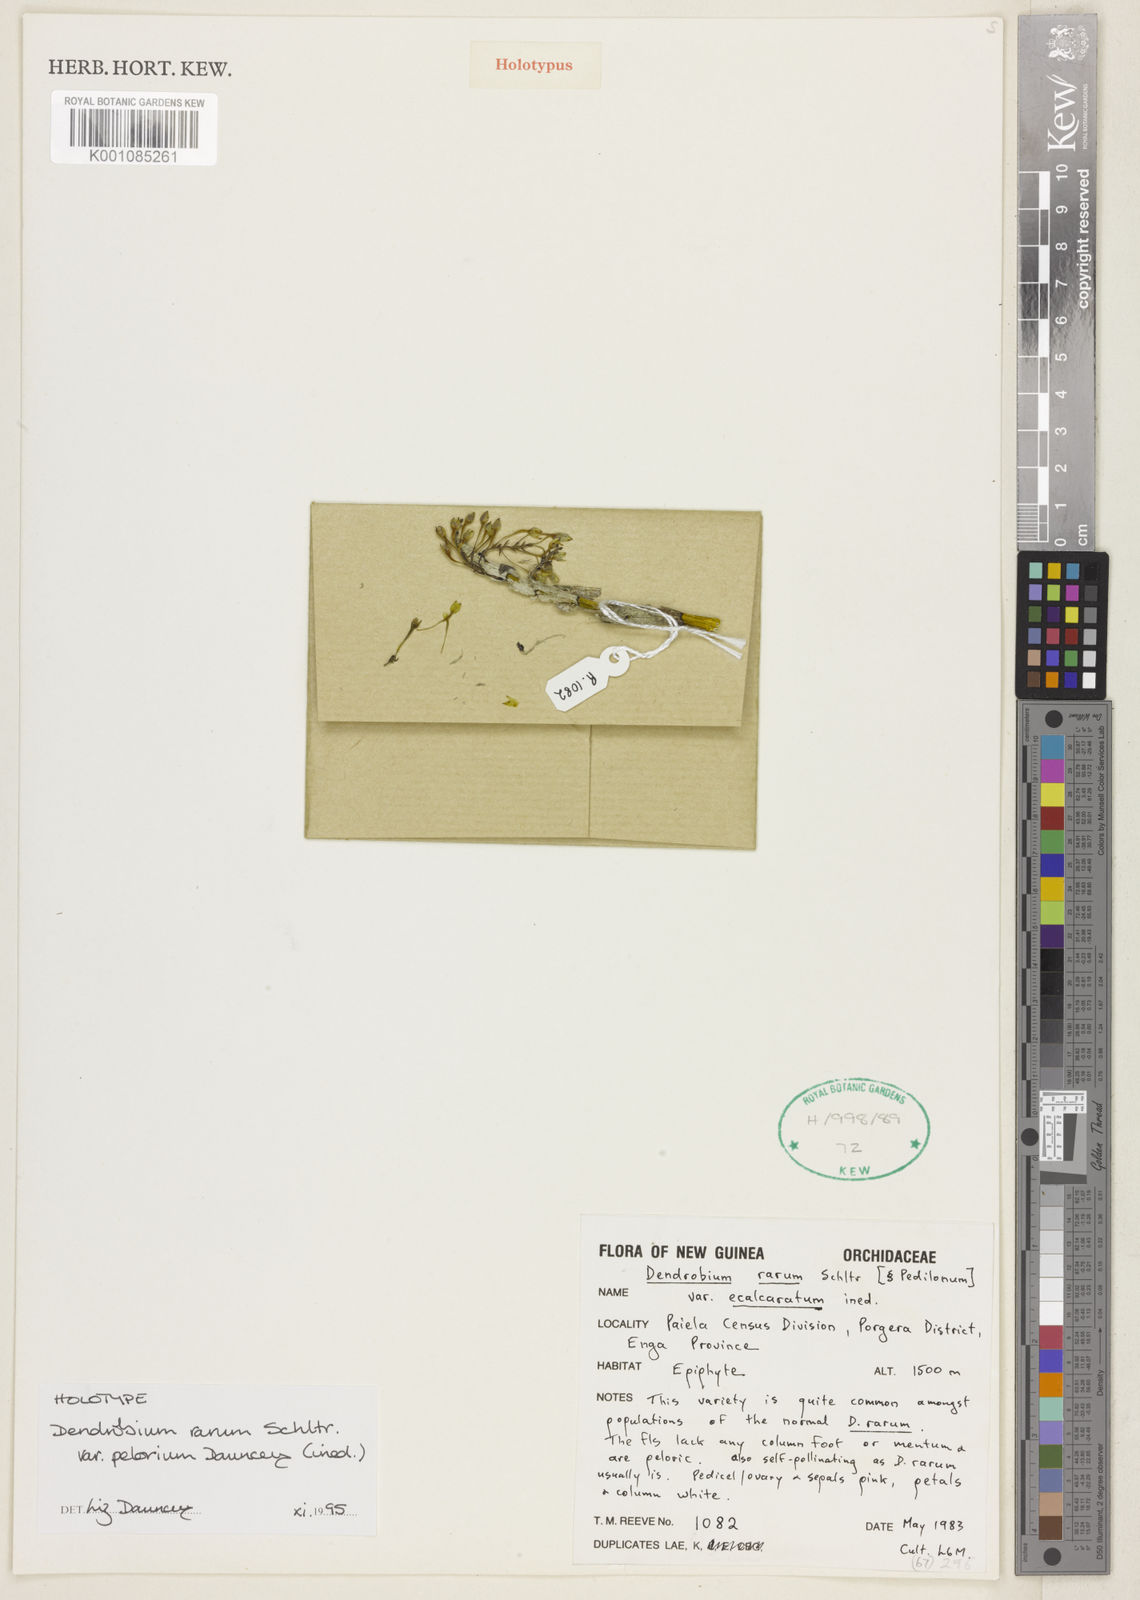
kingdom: Plantae
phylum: Tracheophyta
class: Liliopsida
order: Asparagales
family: Orchidaceae
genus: Dendrobium
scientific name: Dendrobium rarum
